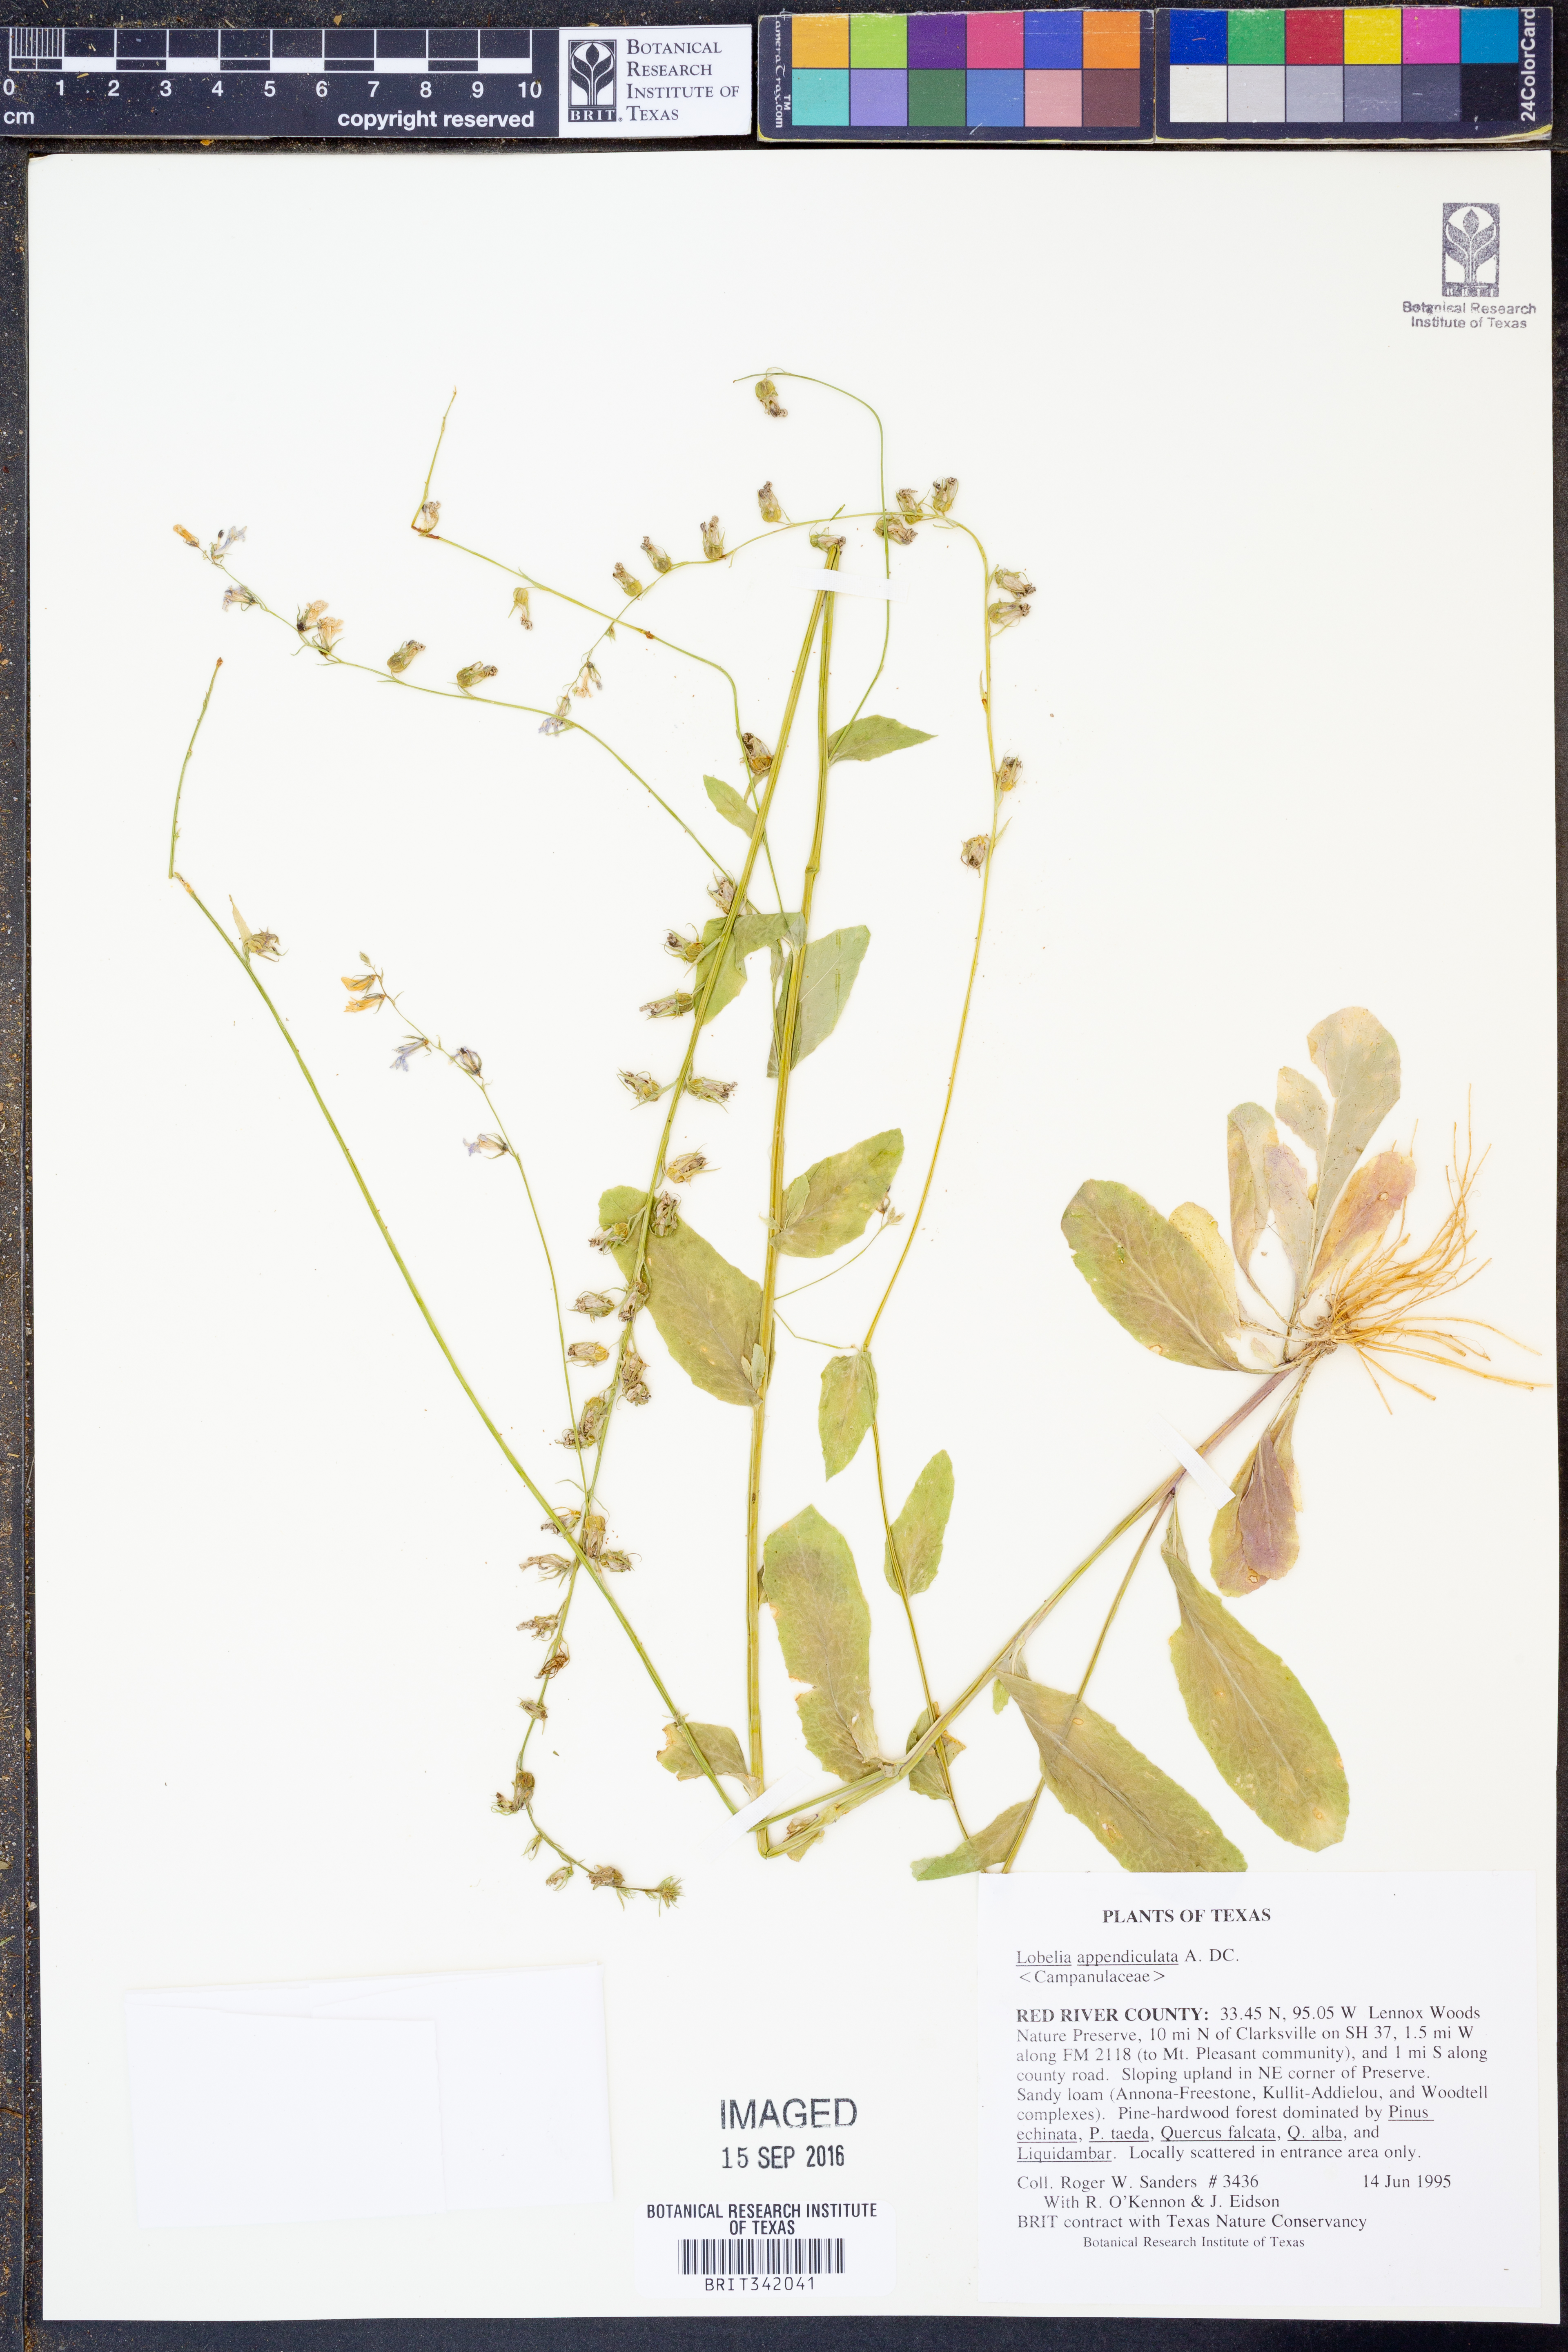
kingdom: Plantae
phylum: Tracheophyta
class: Magnoliopsida
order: Asterales
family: Campanulaceae
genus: Lobelia
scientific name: Lobelia appendiculata
